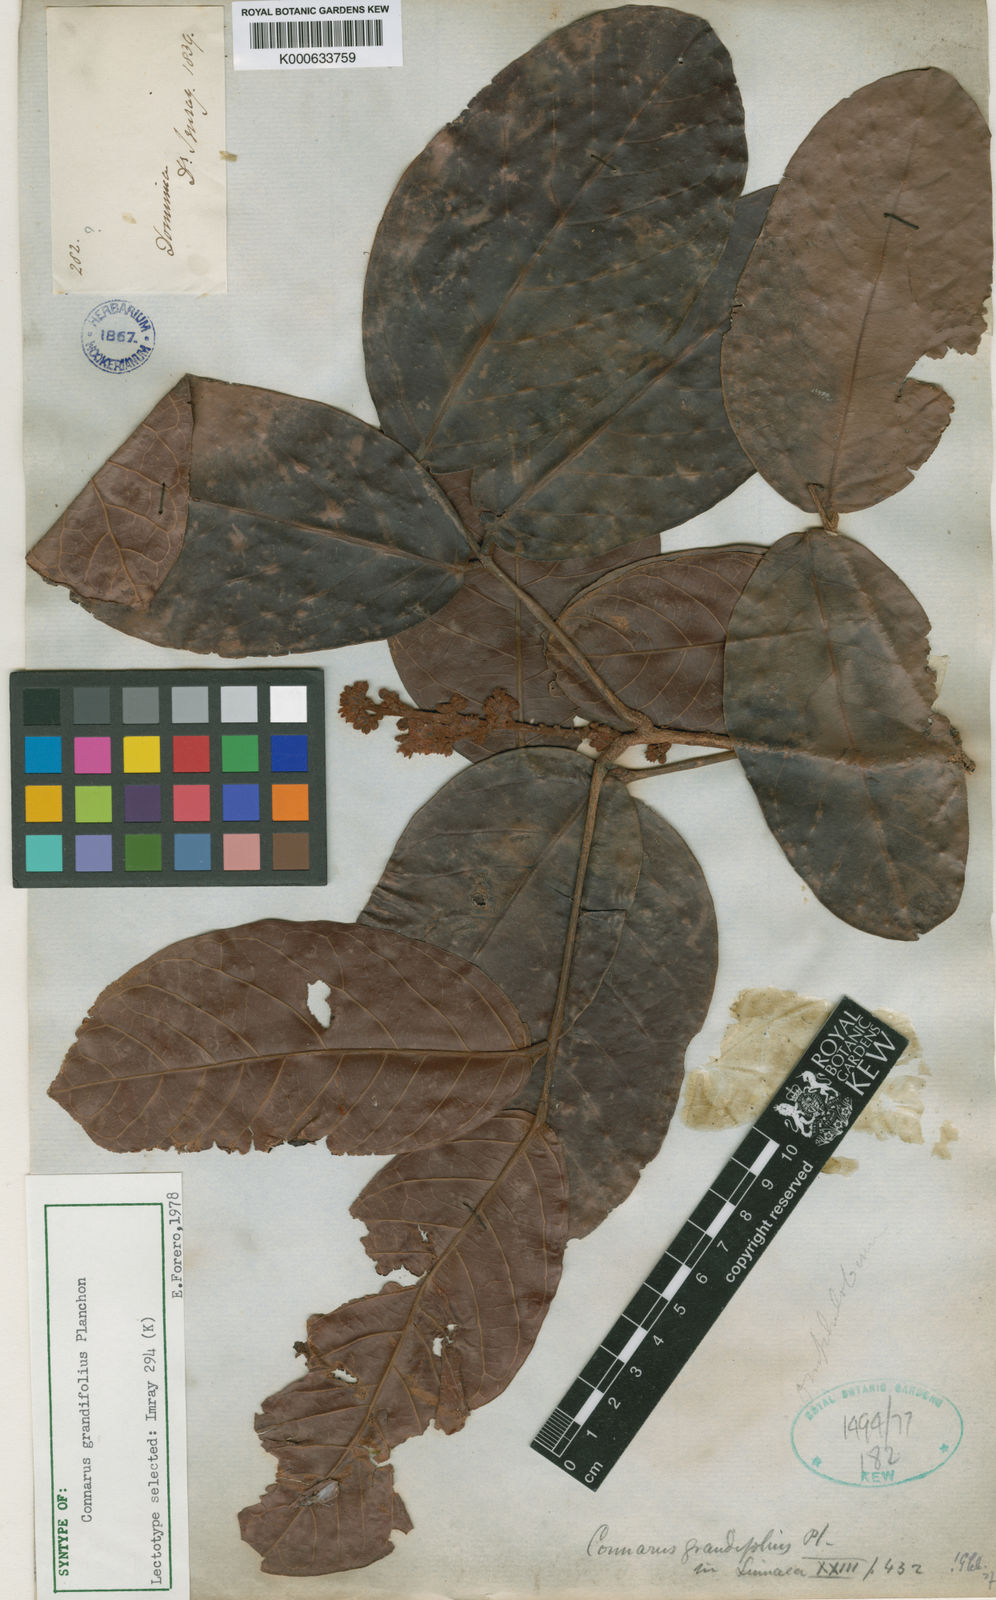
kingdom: Plantae
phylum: Tracheophyta
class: Magnoliopsida
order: Oxalidales
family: Connaraceae
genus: Connarus
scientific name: Connarus grandifolius
